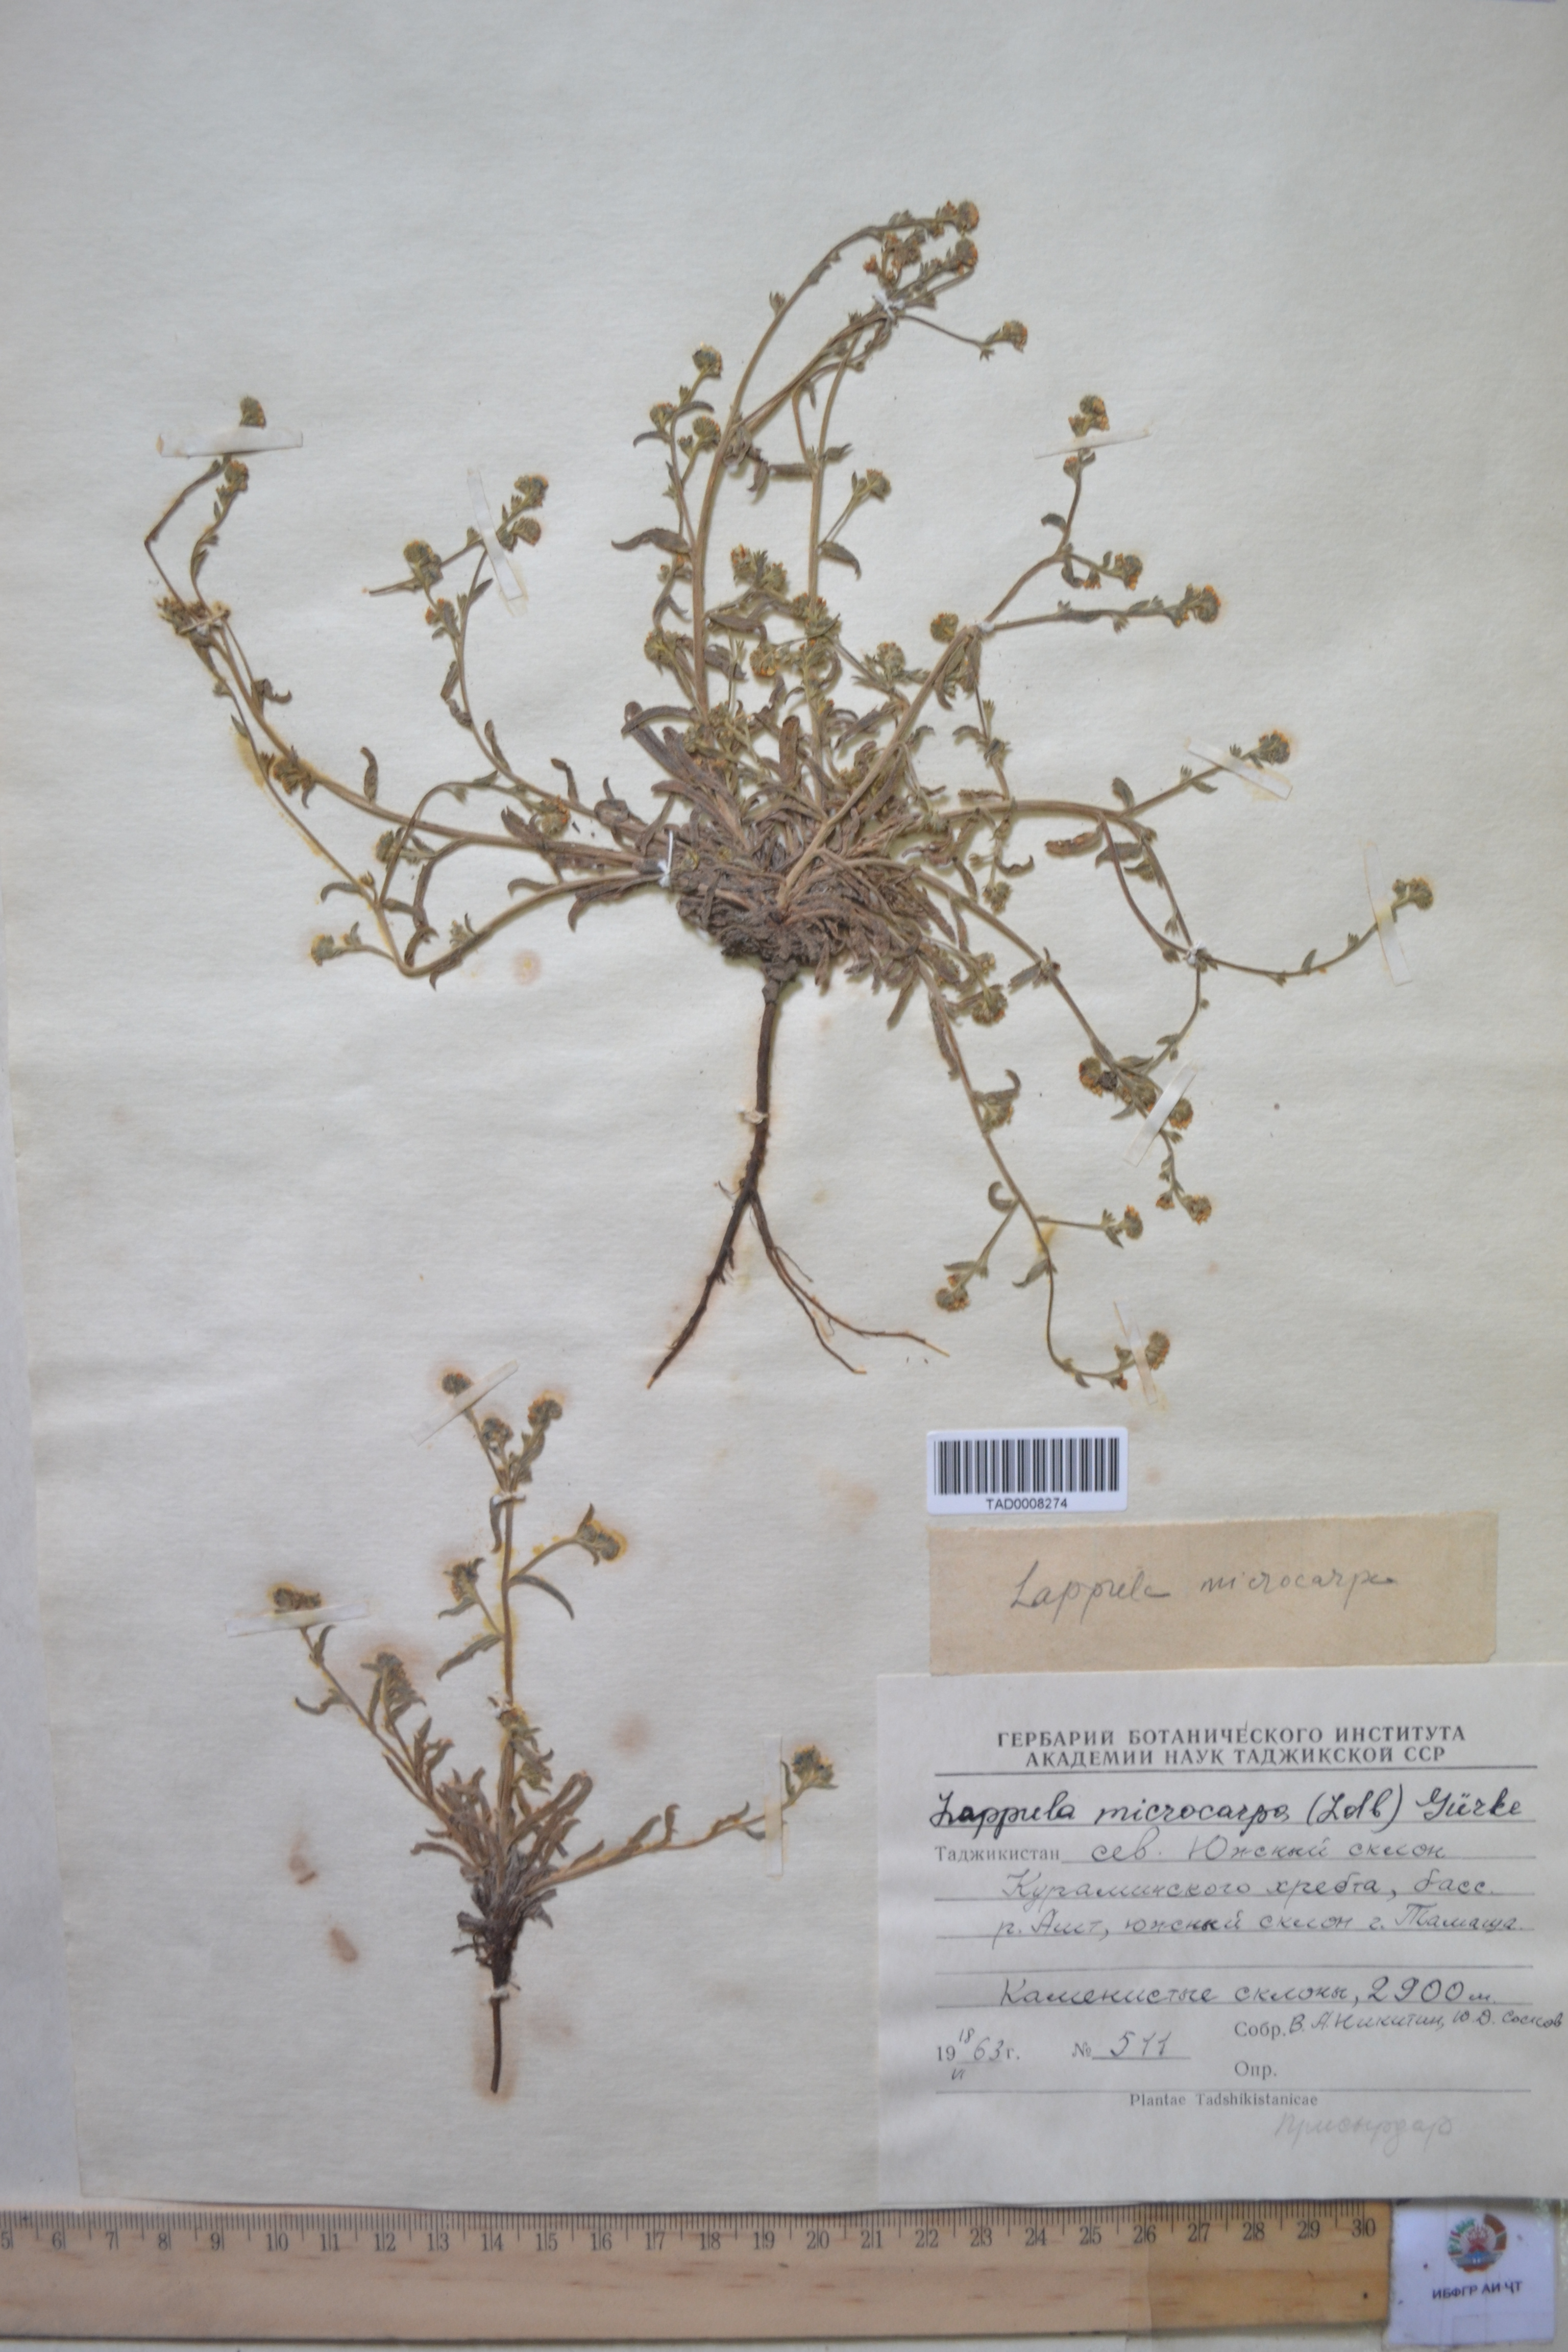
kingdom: Plantae
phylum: Tracheophyta
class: Magnoliopsida
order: Boraginales
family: Boraginaceae
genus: Lappula
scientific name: Lappula microcarpa
